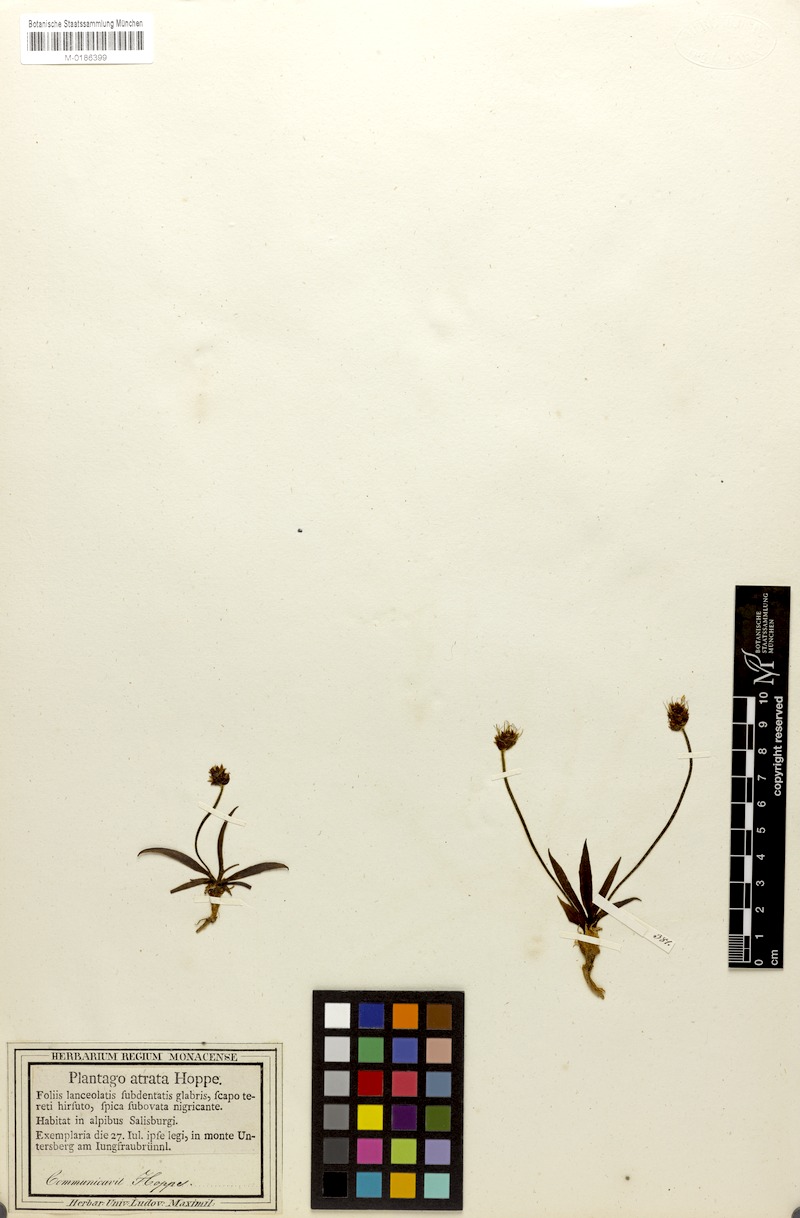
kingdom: Plantae
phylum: Tracheophyta
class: Magnoliopsida
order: Lamiales
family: Plantaginaceae
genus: Plantago
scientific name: Plantago atrata
